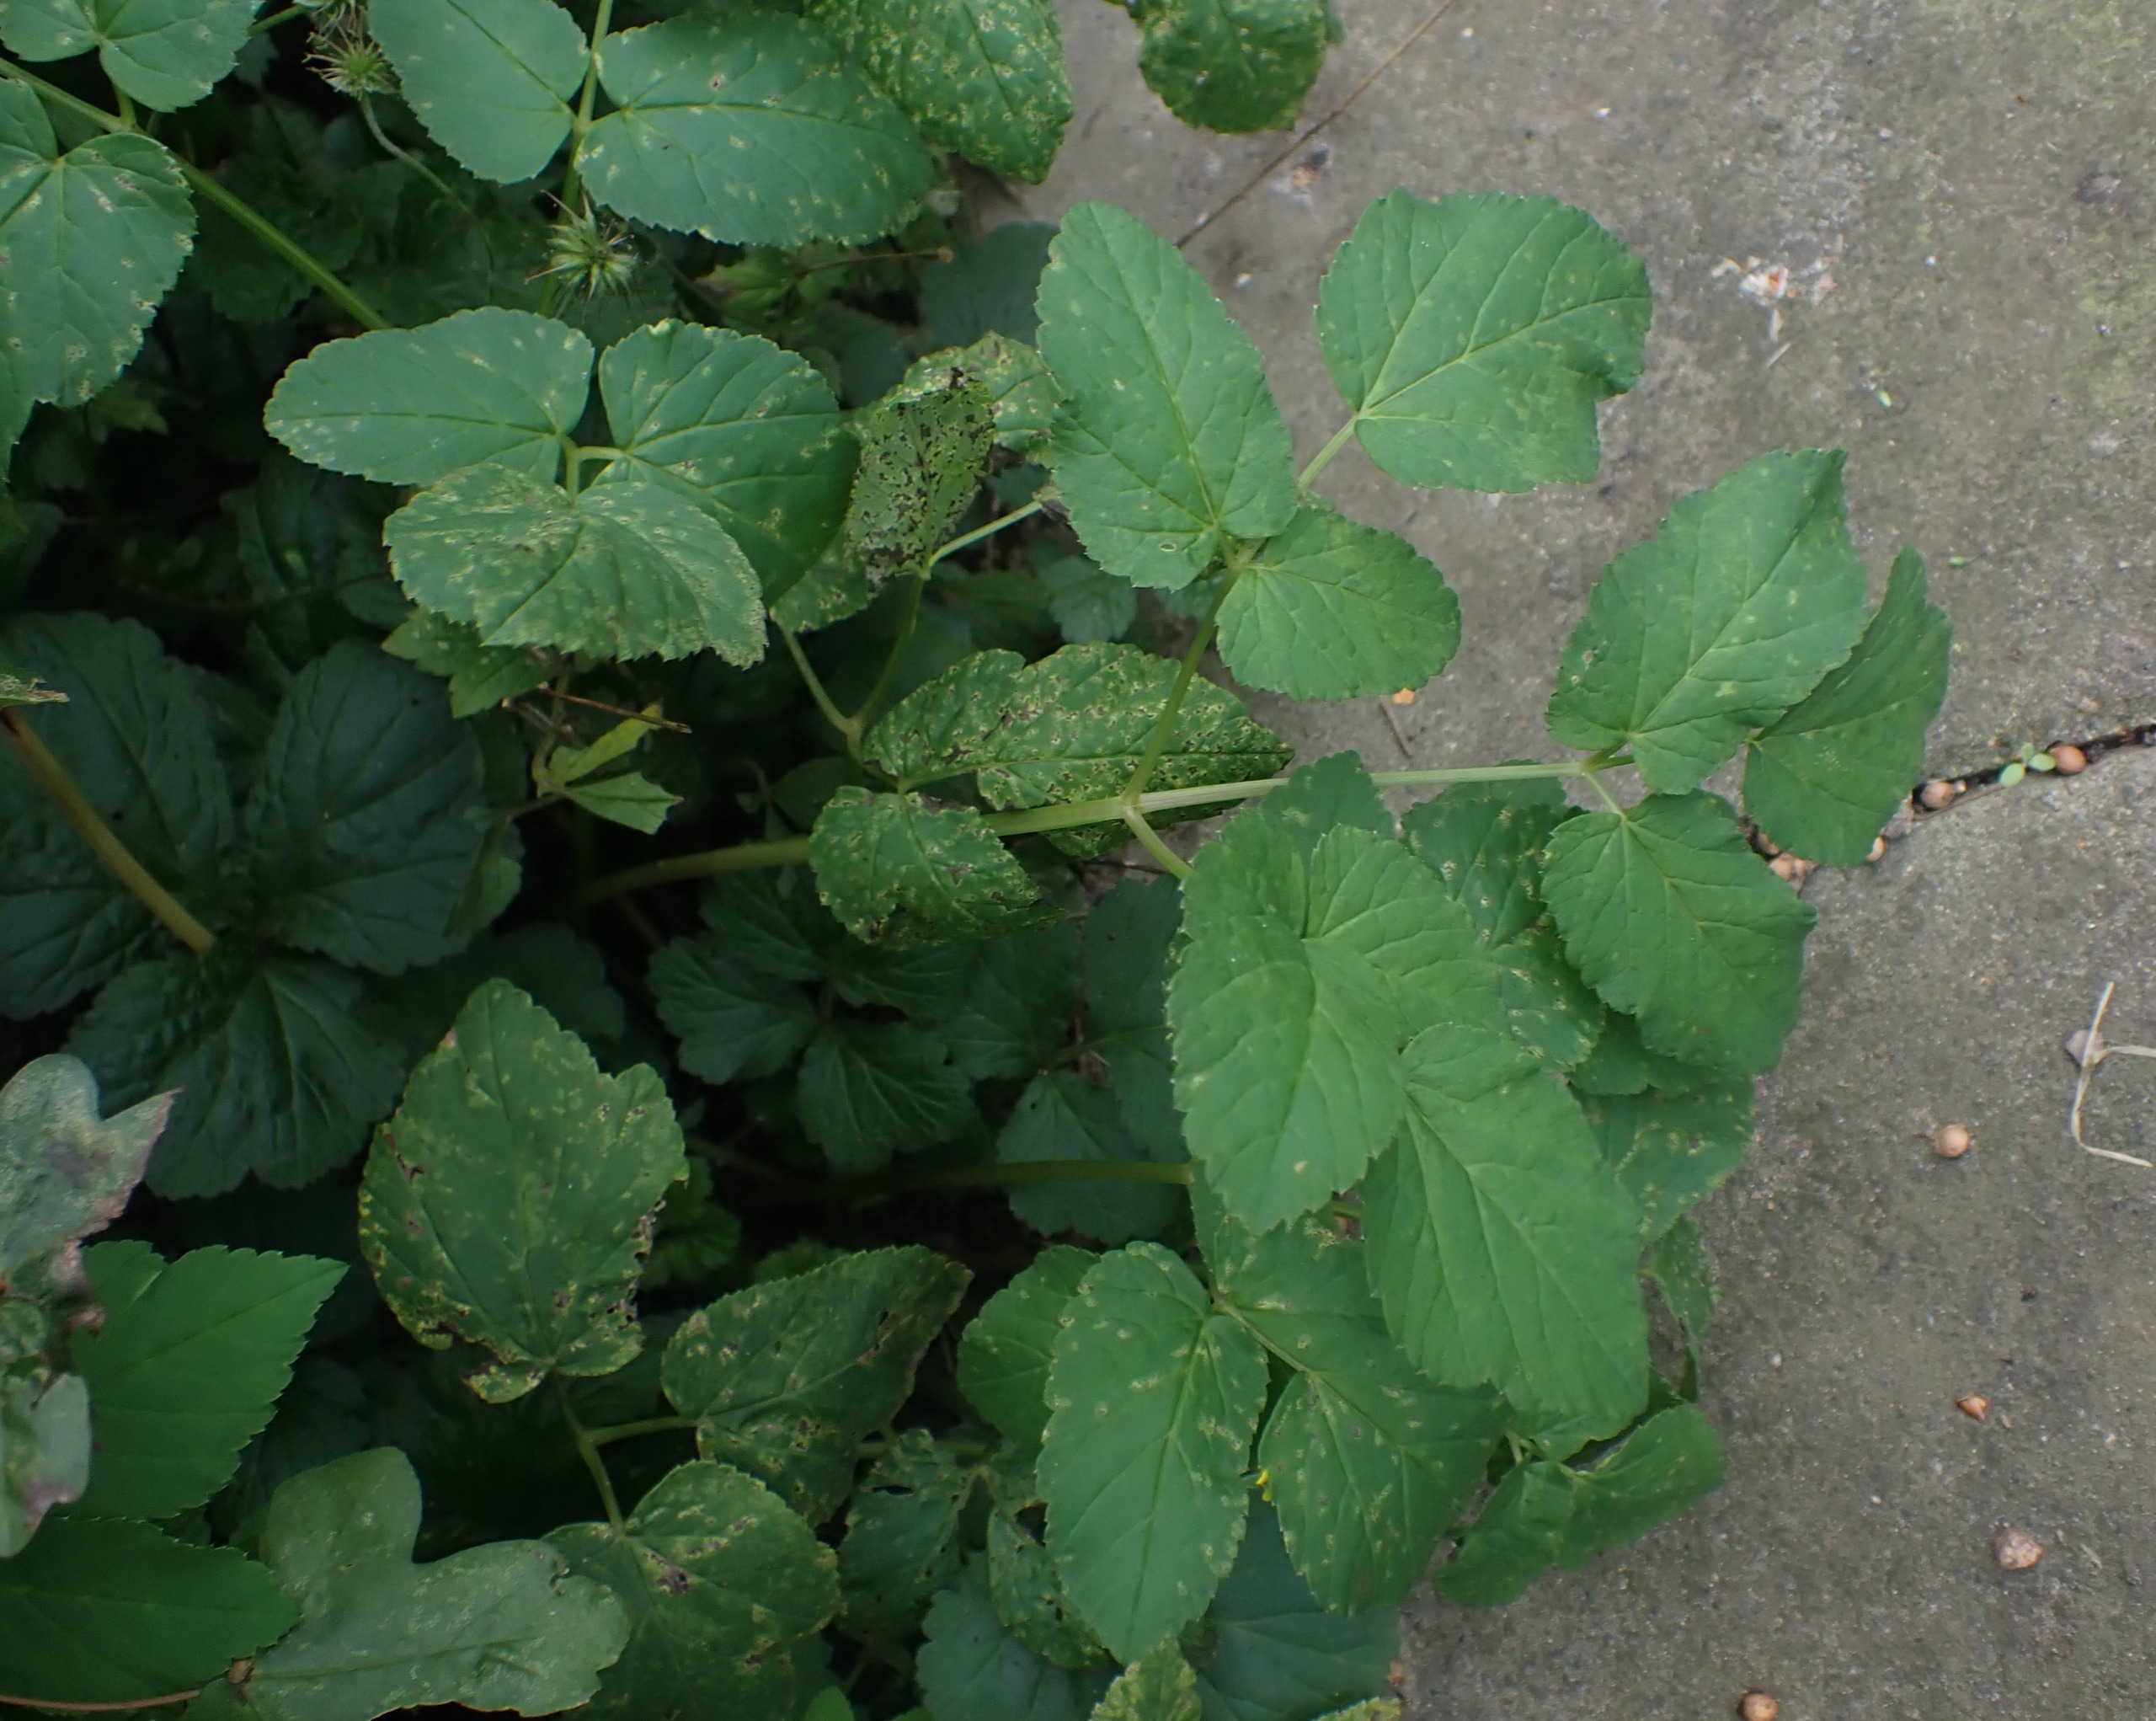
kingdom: Plantae
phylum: Tracheophyta
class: Magnoliopsida
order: Apiales
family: Apiaceae
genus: Aegopodium
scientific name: Aegopodium podagraria
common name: Skvalderkål
